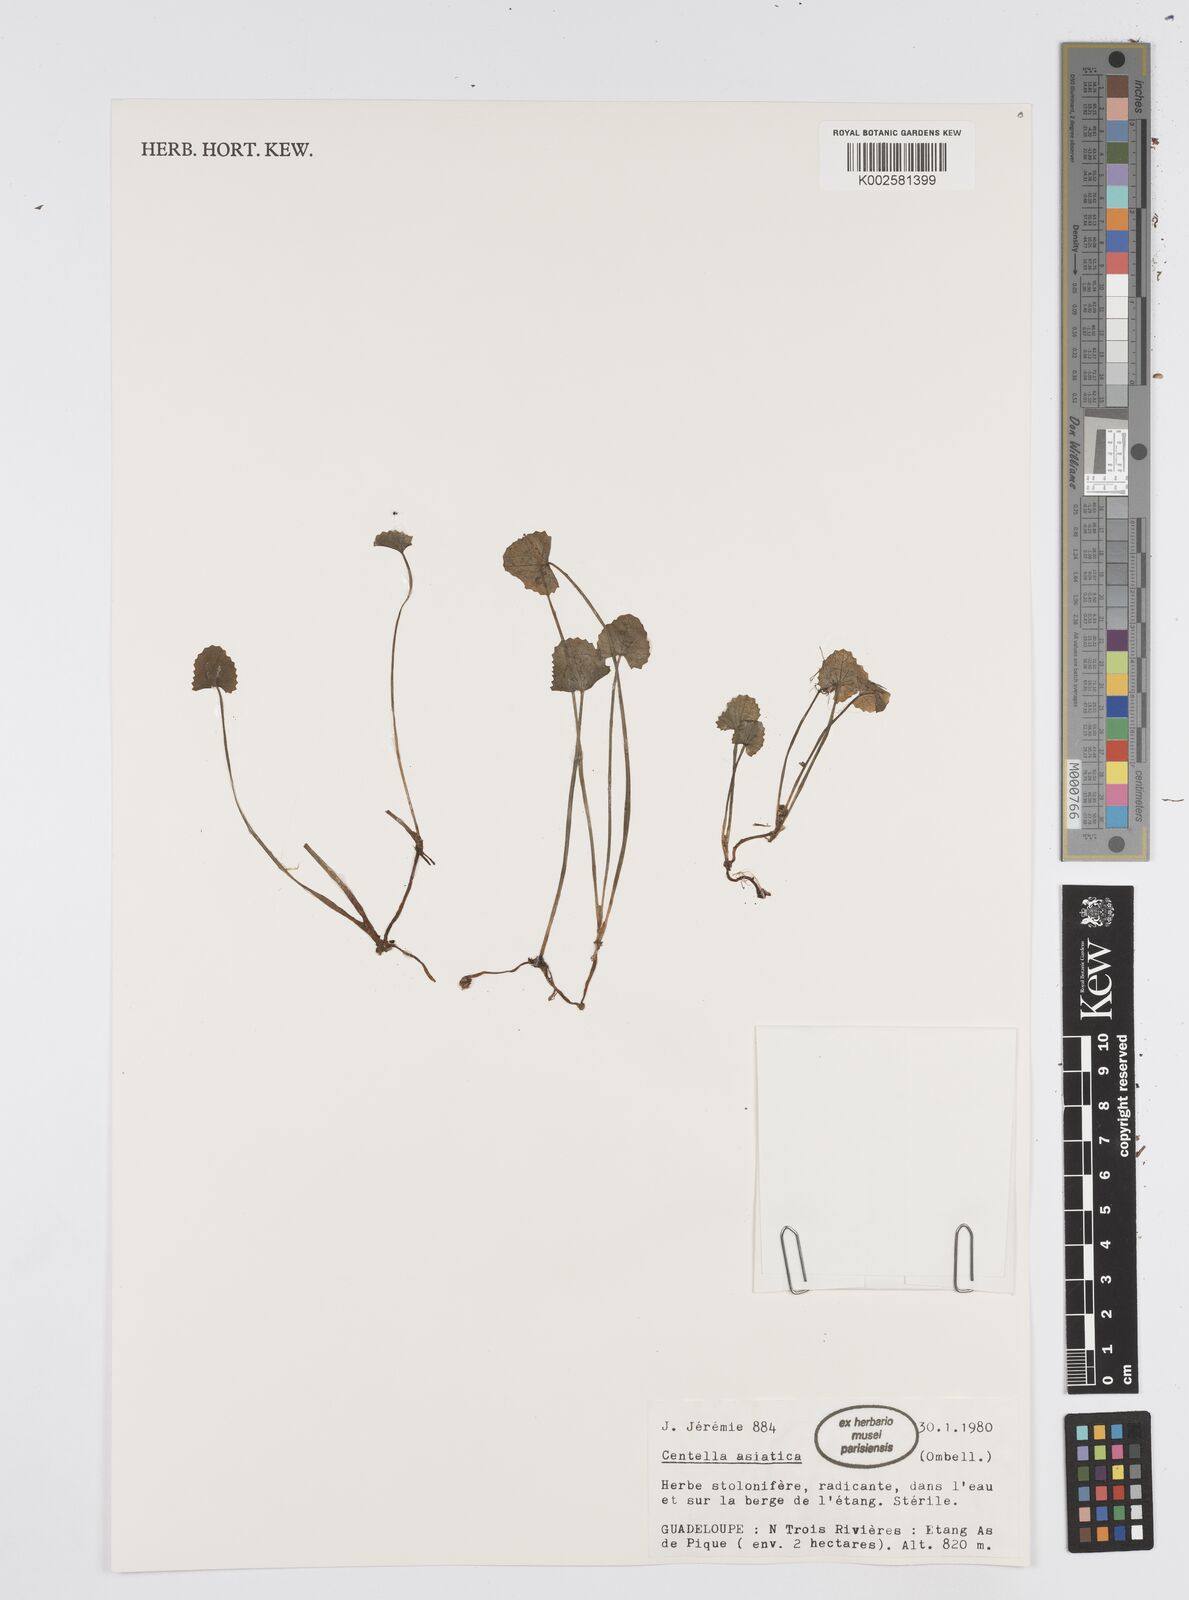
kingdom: Plantae
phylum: Tracheophyta
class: Magnoliopsida
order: Apiales
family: Apiaceae
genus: Centella
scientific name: Centella asiatica
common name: Spadeleaf
